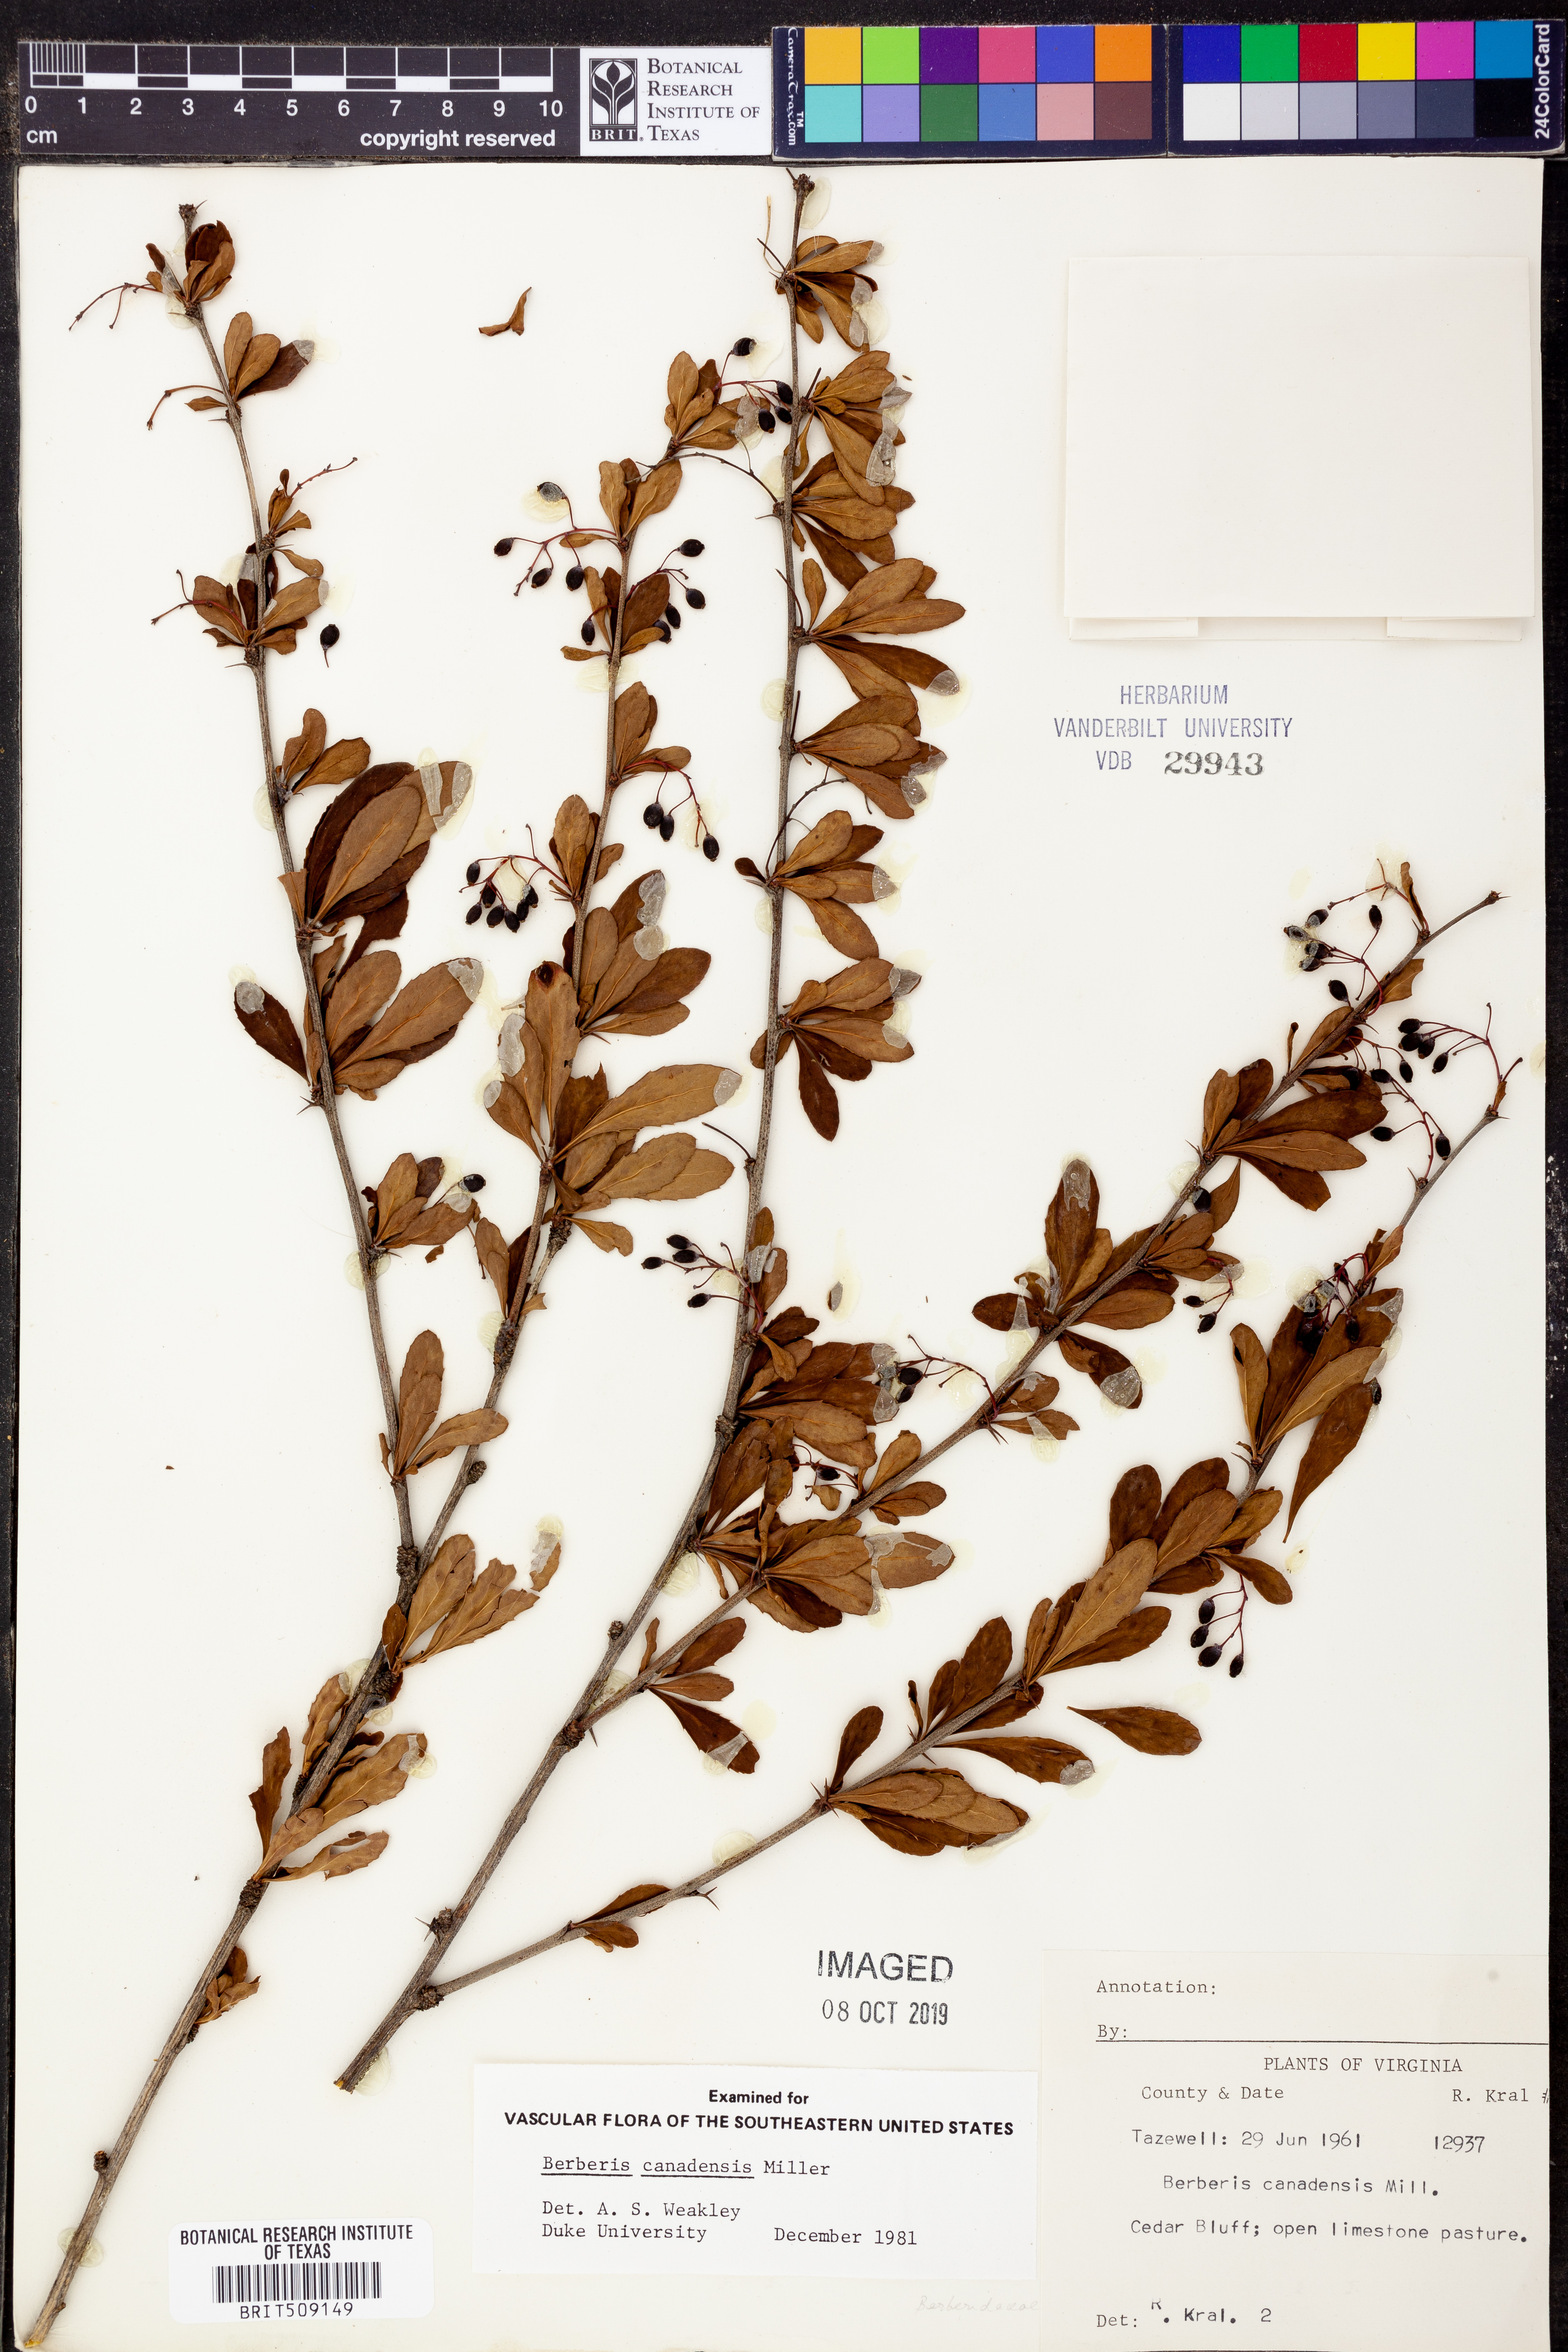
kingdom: Plantae
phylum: Tracheophyta
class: Magnoliopsida
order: Ranunculales
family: Berberidaceae
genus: Berberis
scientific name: Berberis canadensis
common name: American barberry
